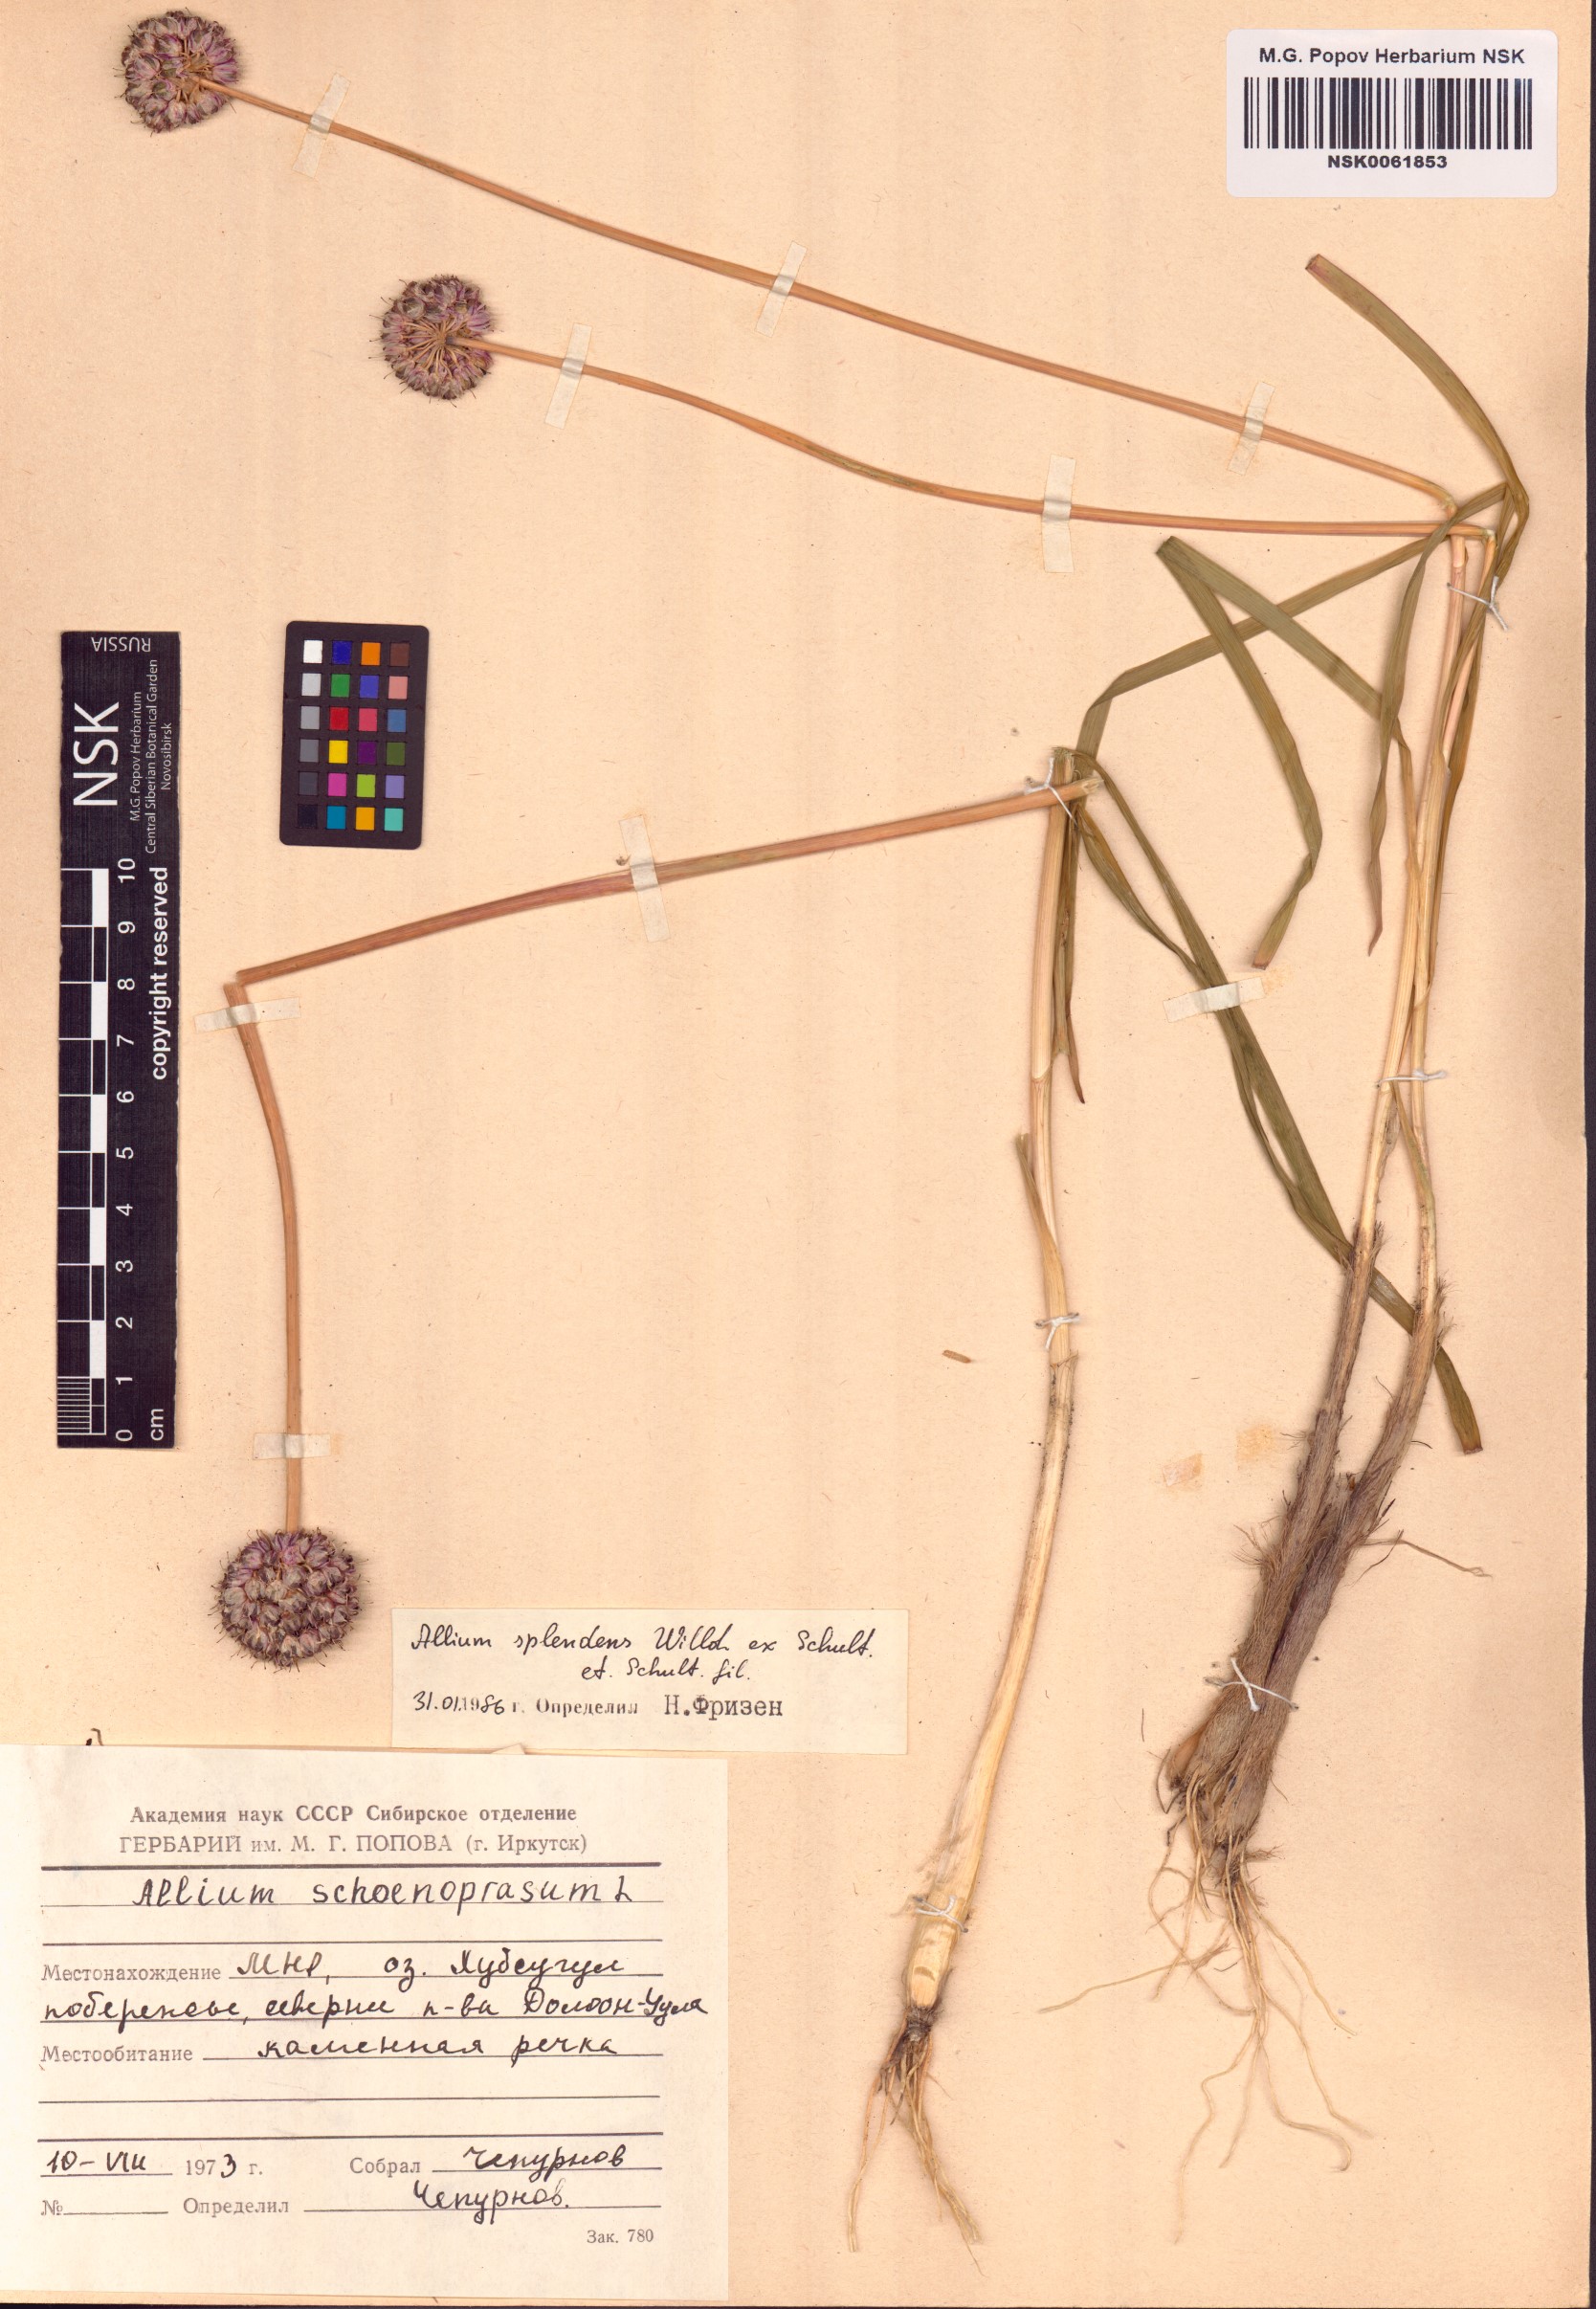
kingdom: Plantae
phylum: Tracheophyta
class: Liliopsida
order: Asparagales
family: Amaryllidaceae
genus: Allium
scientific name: Allium splendens
